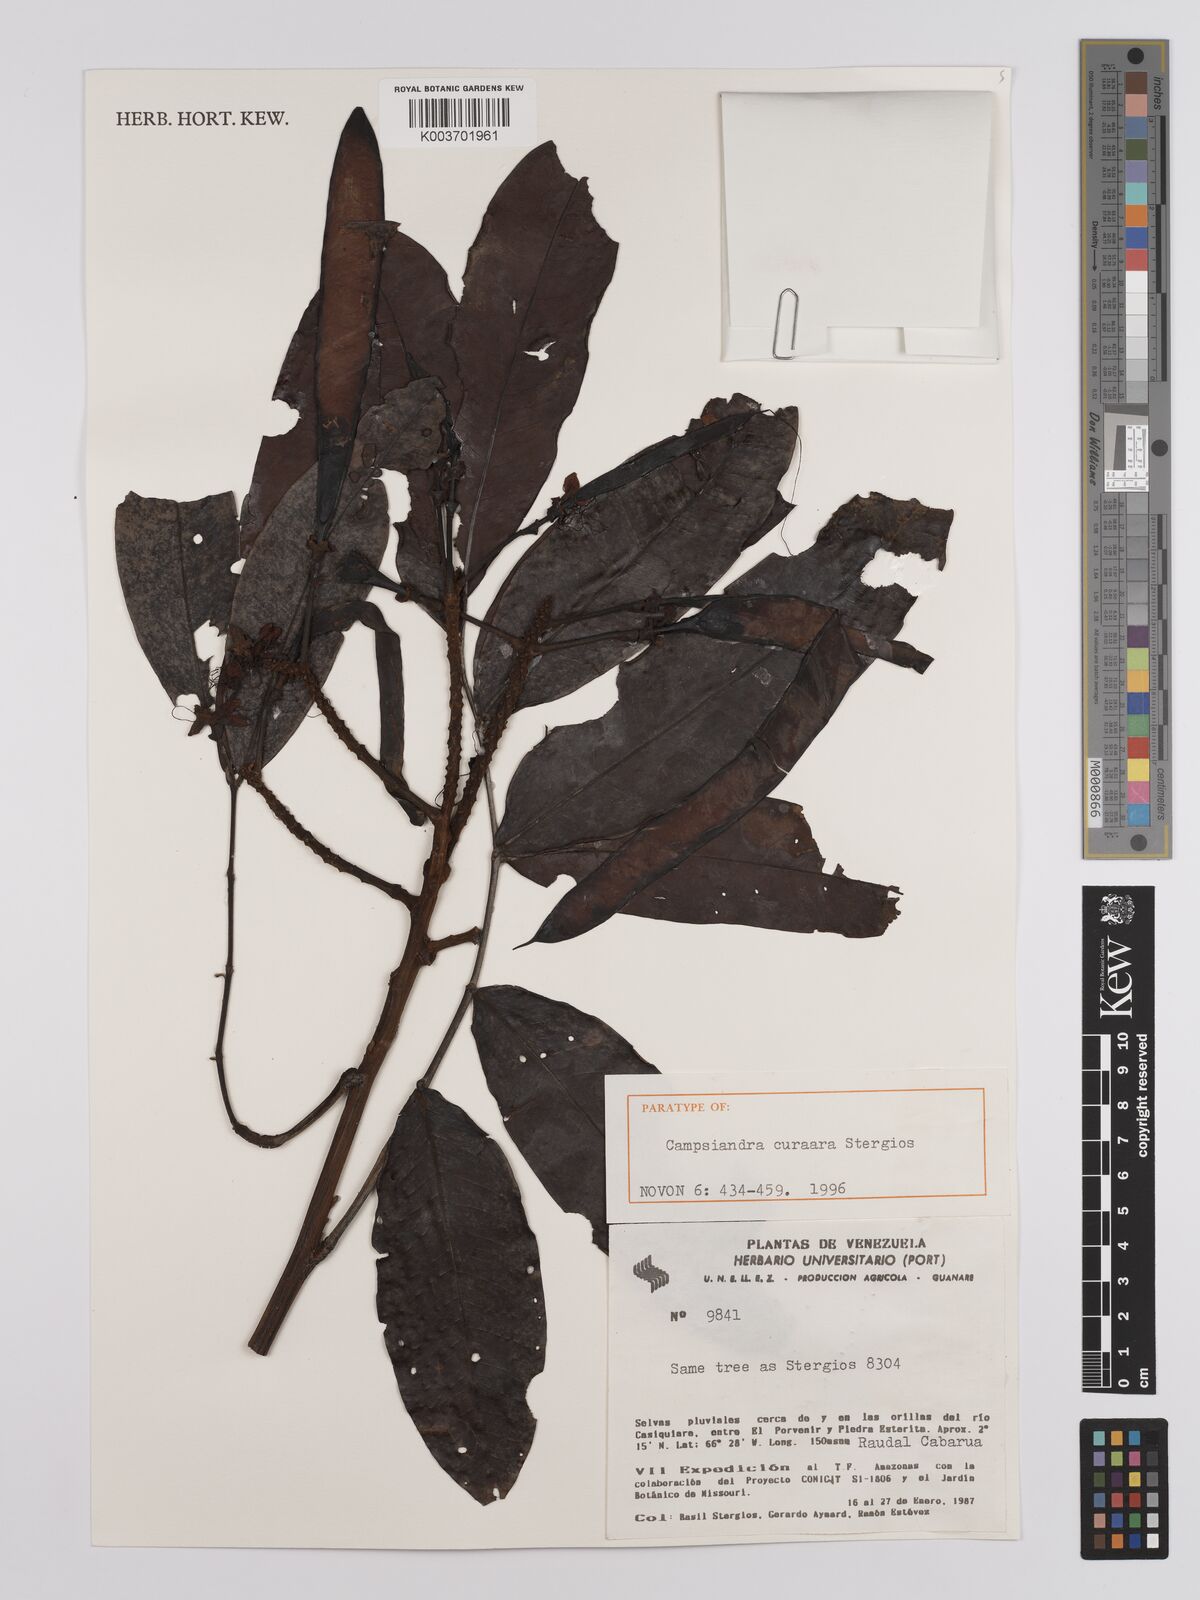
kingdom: Plantae
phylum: Tracheophyta
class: Magnoliopsida
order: Fabales
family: Fabaceae
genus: Campsiandra
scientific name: Campsiandra curaara
